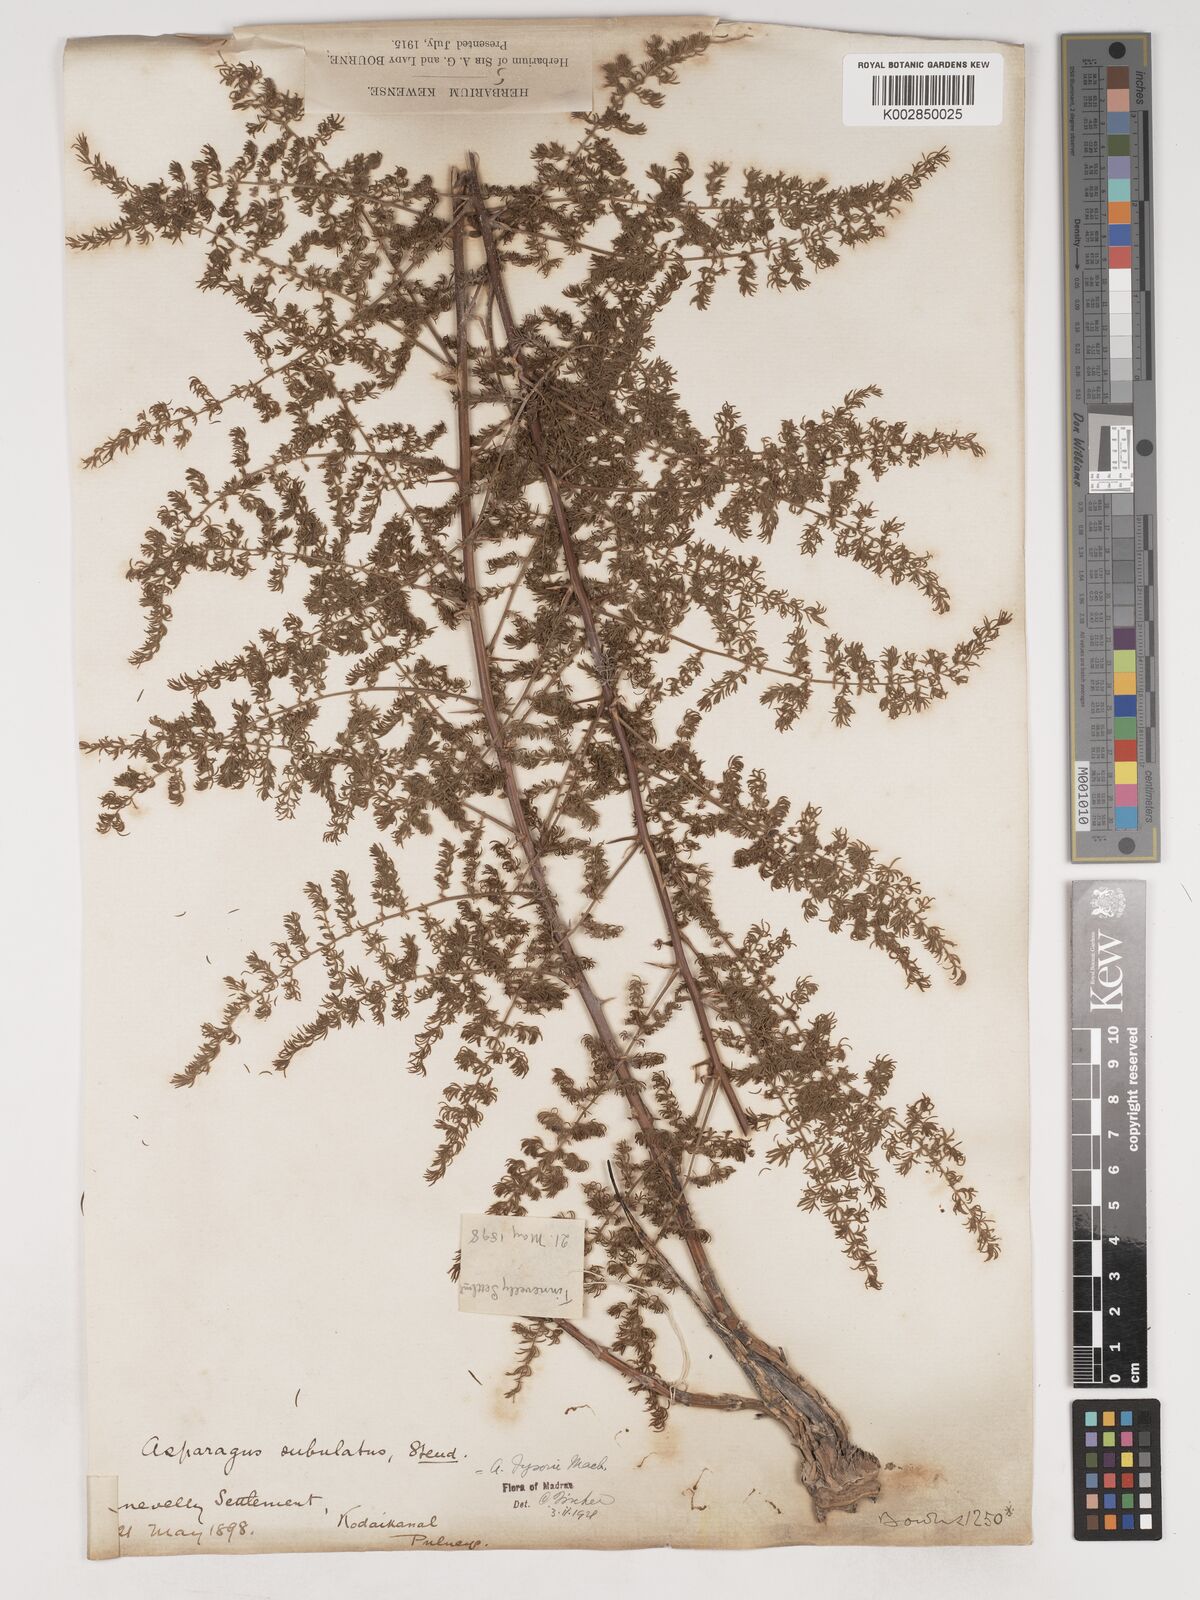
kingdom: Plantae
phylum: Tracheophyta
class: Liliopsida
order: Asparagales
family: Asparagaceae
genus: Asparagus
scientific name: Asparagus fysonii
